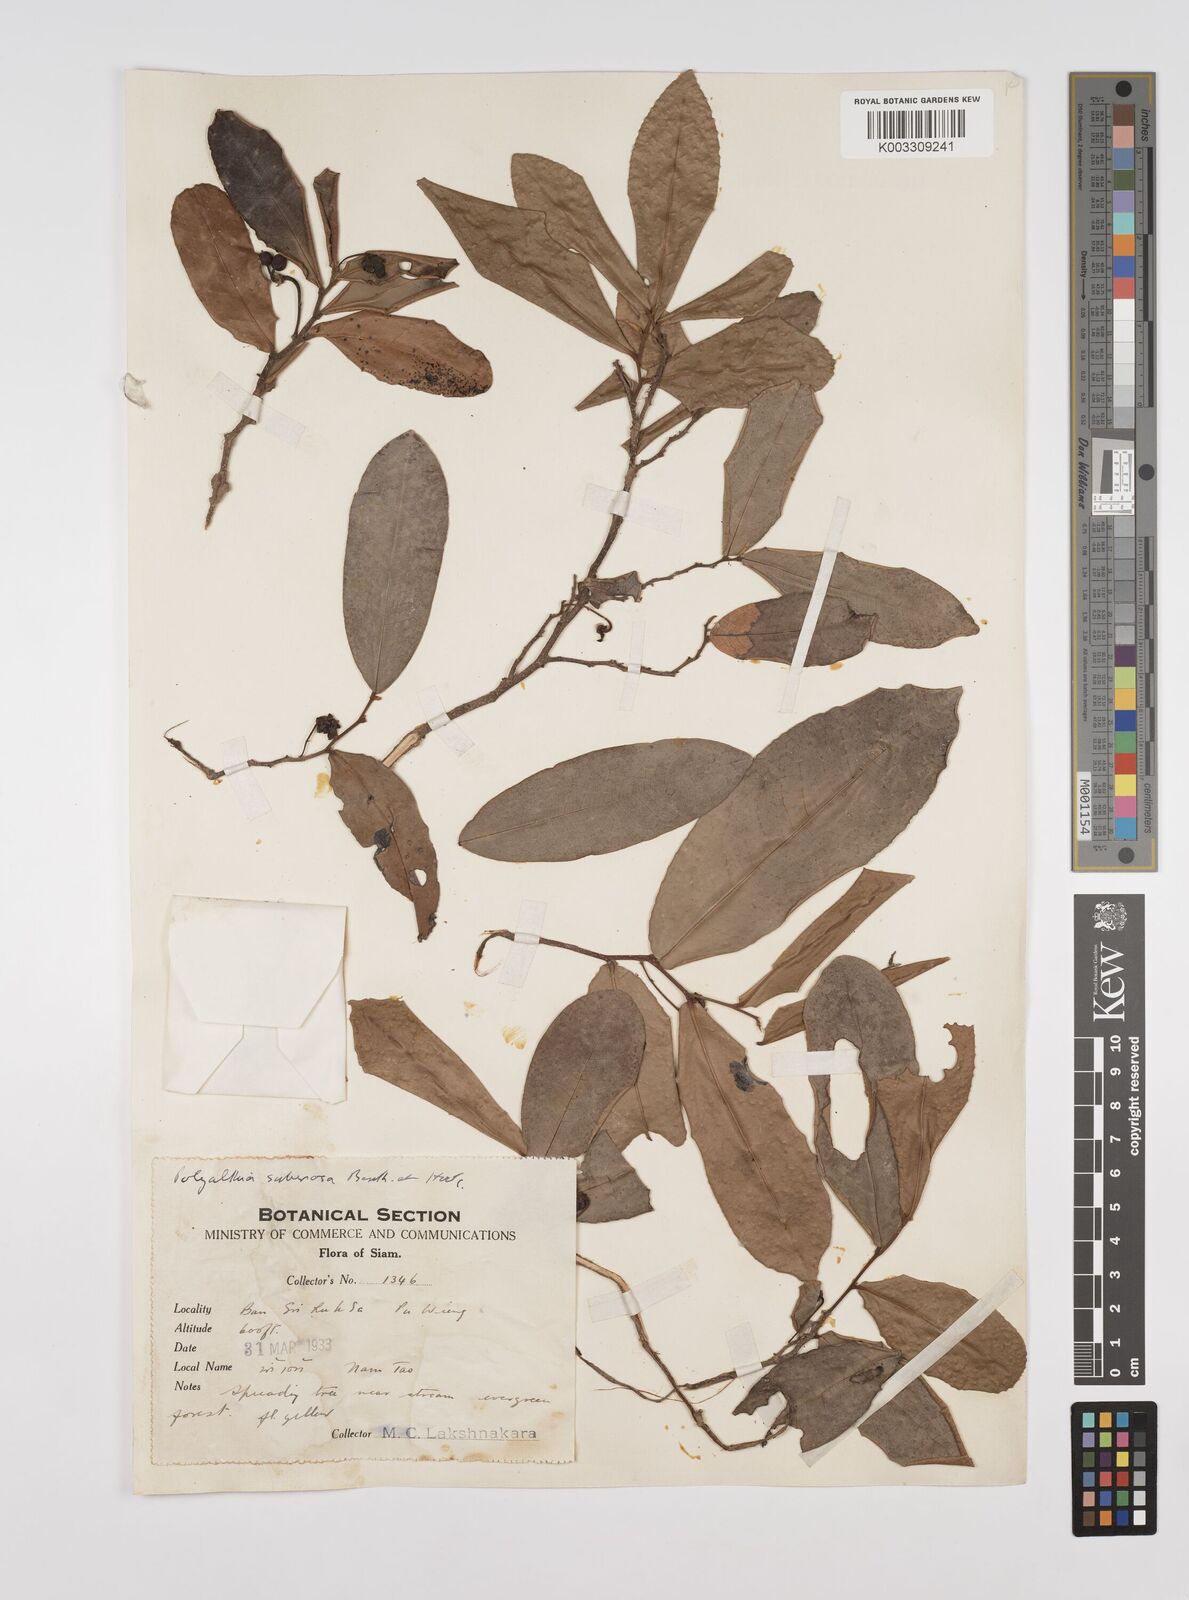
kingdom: Plantae
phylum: Tracheophyta
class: Magnoliopsida
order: Magnoliales
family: Annonaceae
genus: Polyalthia
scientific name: Polyalthia suberosa
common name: Polyalthia plant
